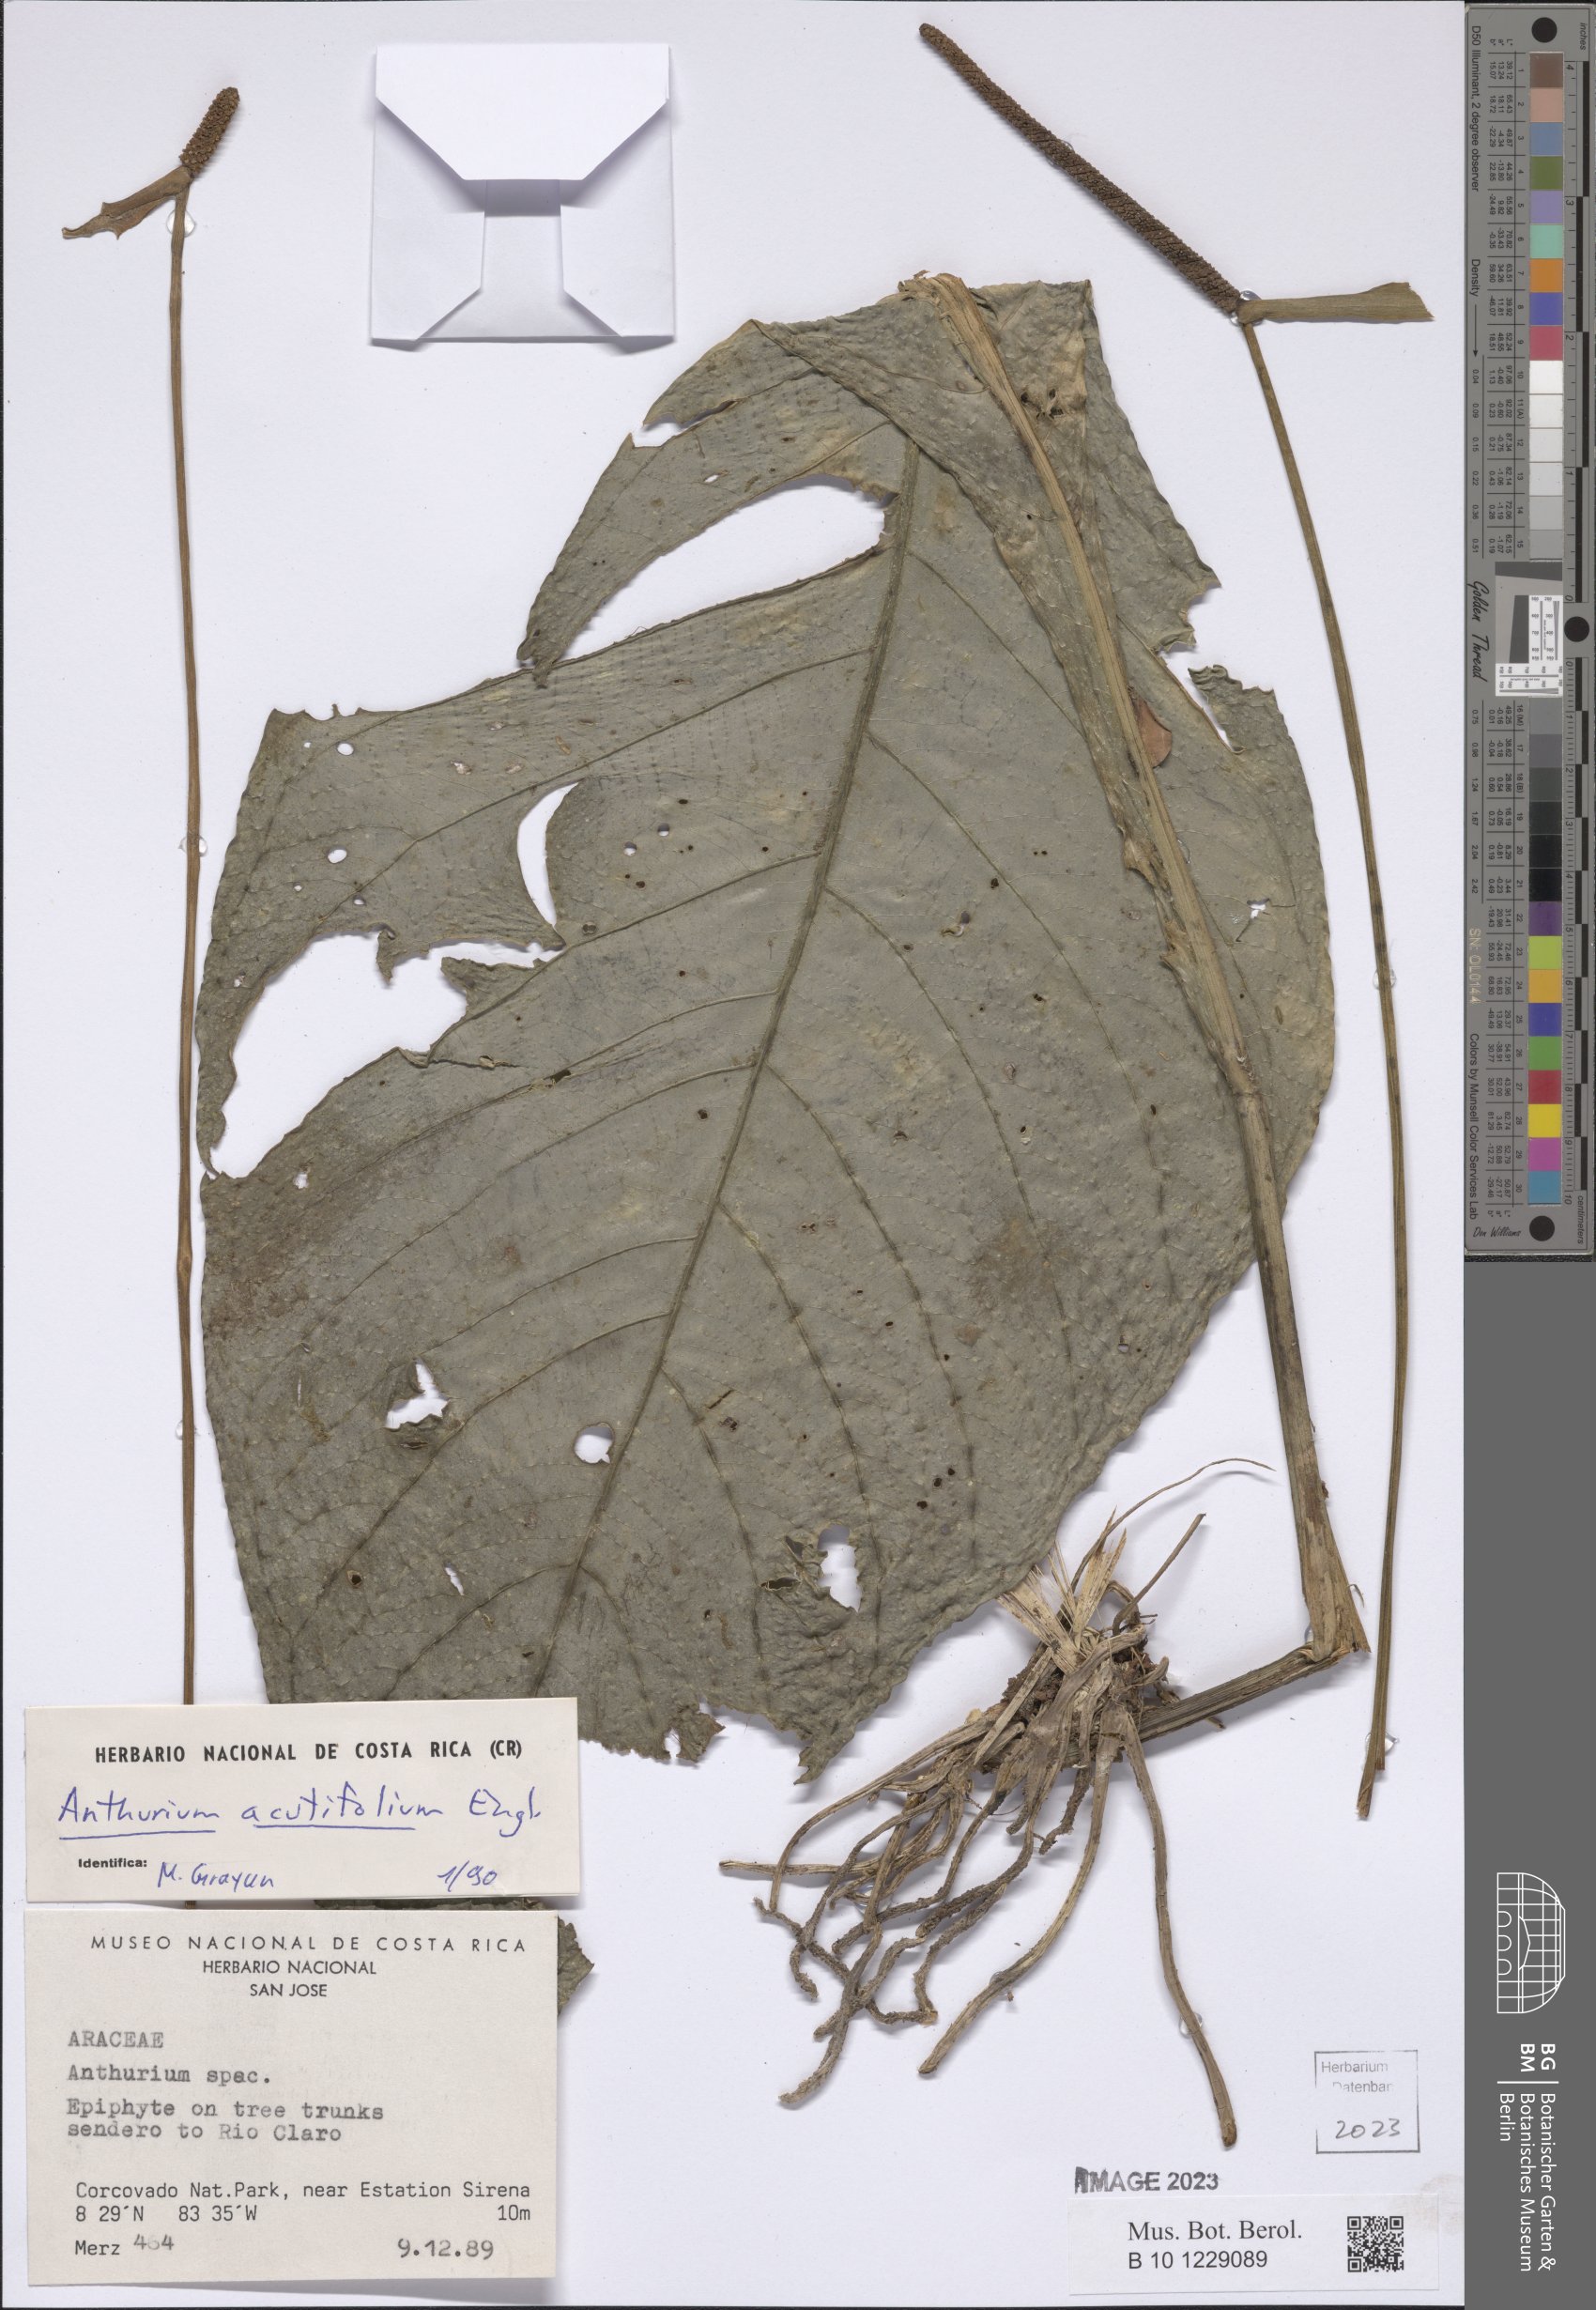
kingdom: Plantae
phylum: Tracheophyta
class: Liliopsida
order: Alismatales
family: Araceae
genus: Anthurium
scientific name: Anthurium acutifolium
